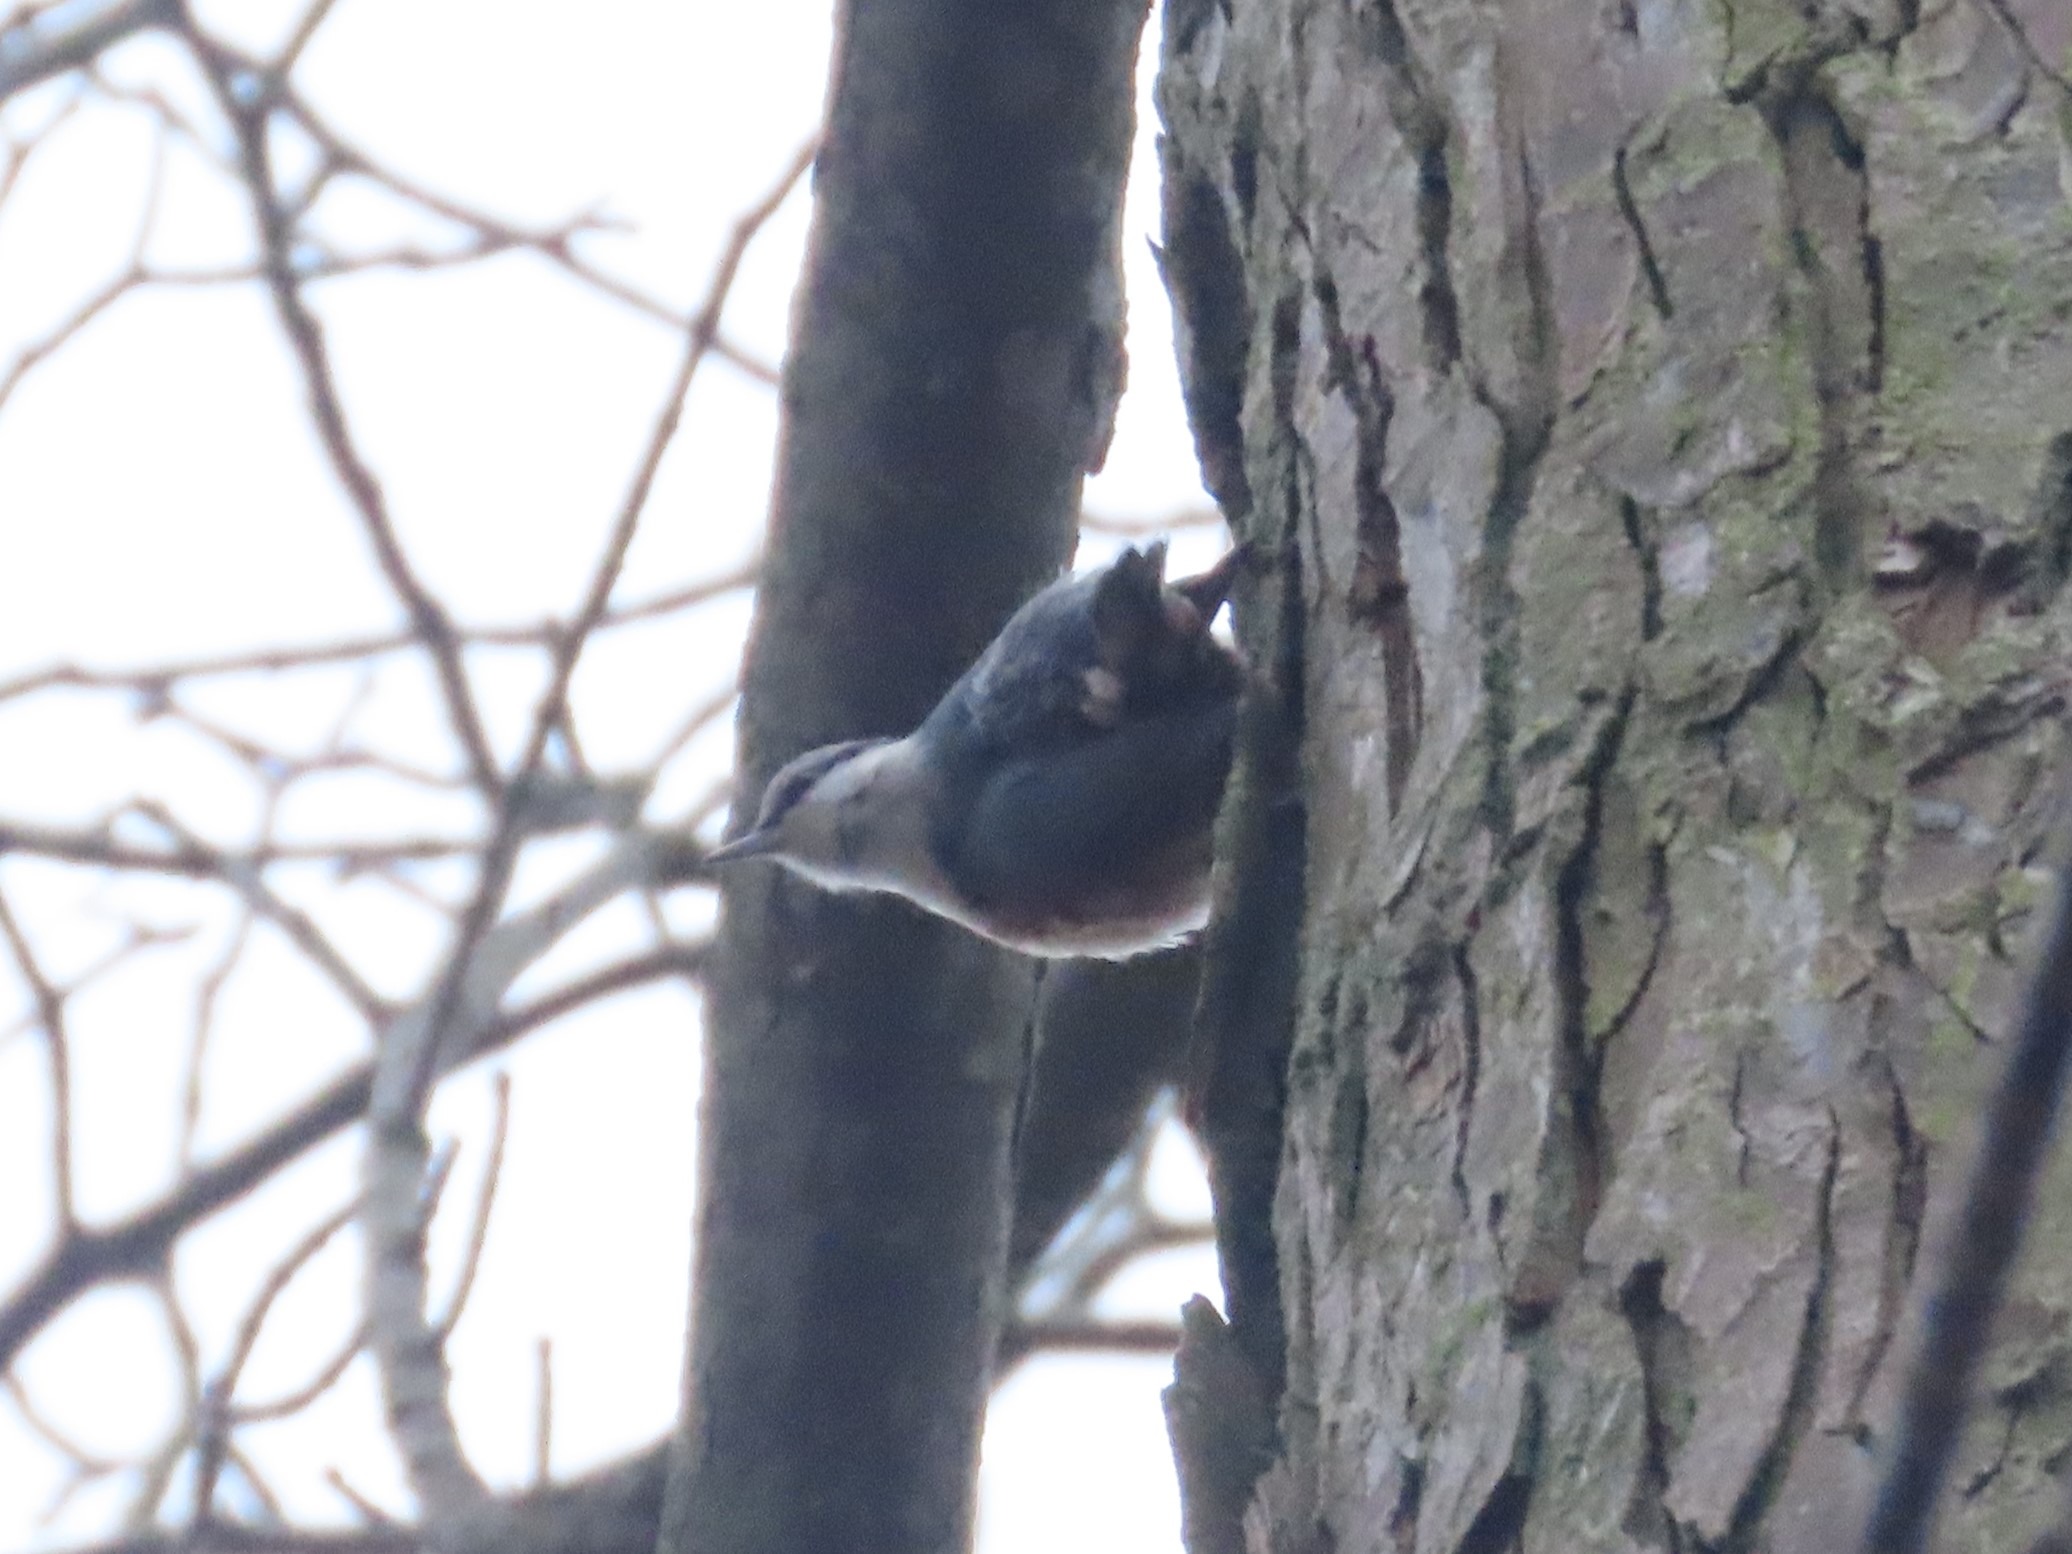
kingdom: Animalia
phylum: Chordata
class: Aves
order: Passeriformes
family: Sittidae
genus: Sitta
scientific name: Sitta europaea
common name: Spætmejse
